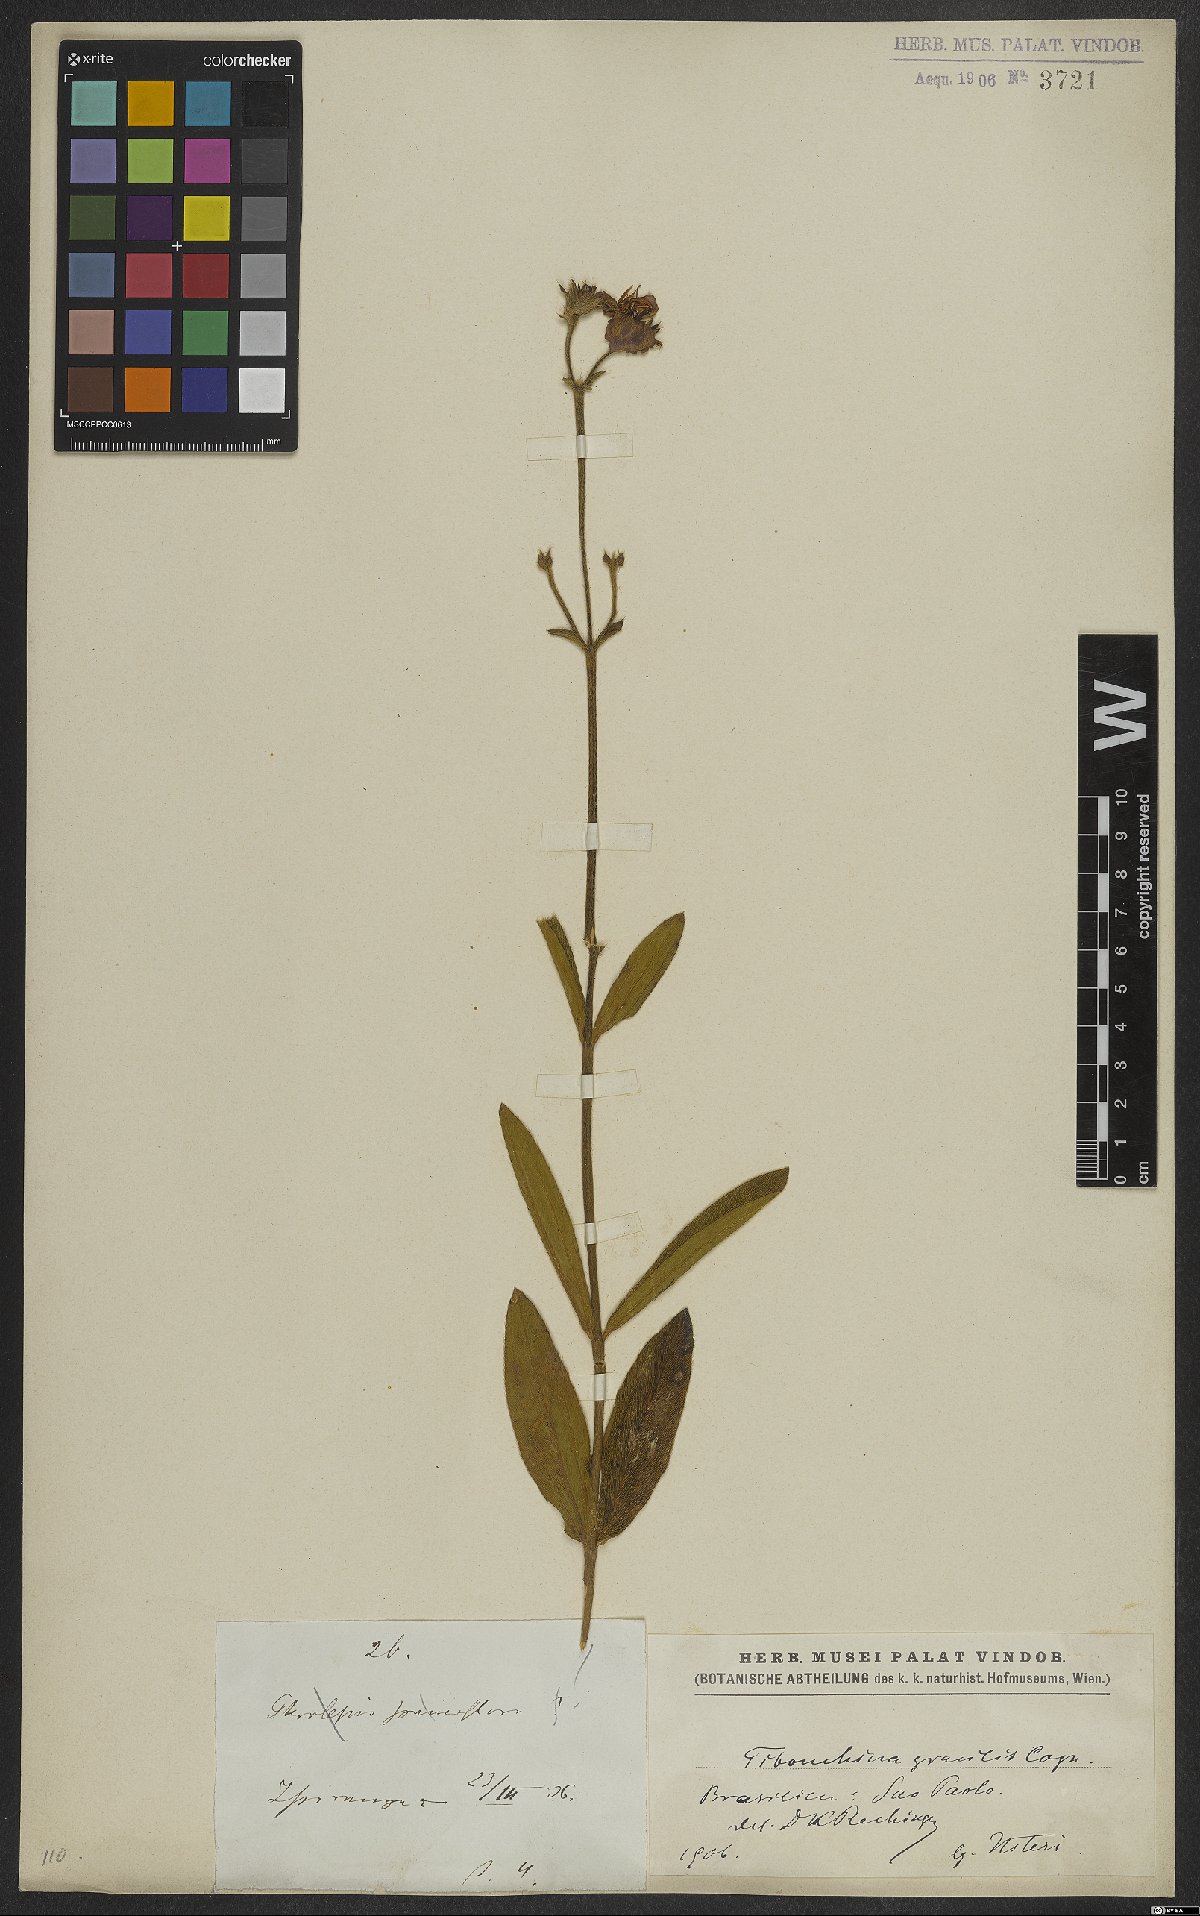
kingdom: Plantae
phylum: Tracheophyta
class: Magnoliopsida
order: Myrtales
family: Melastomataceae
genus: Chaetogastra
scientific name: Chaetogastra gracilis
